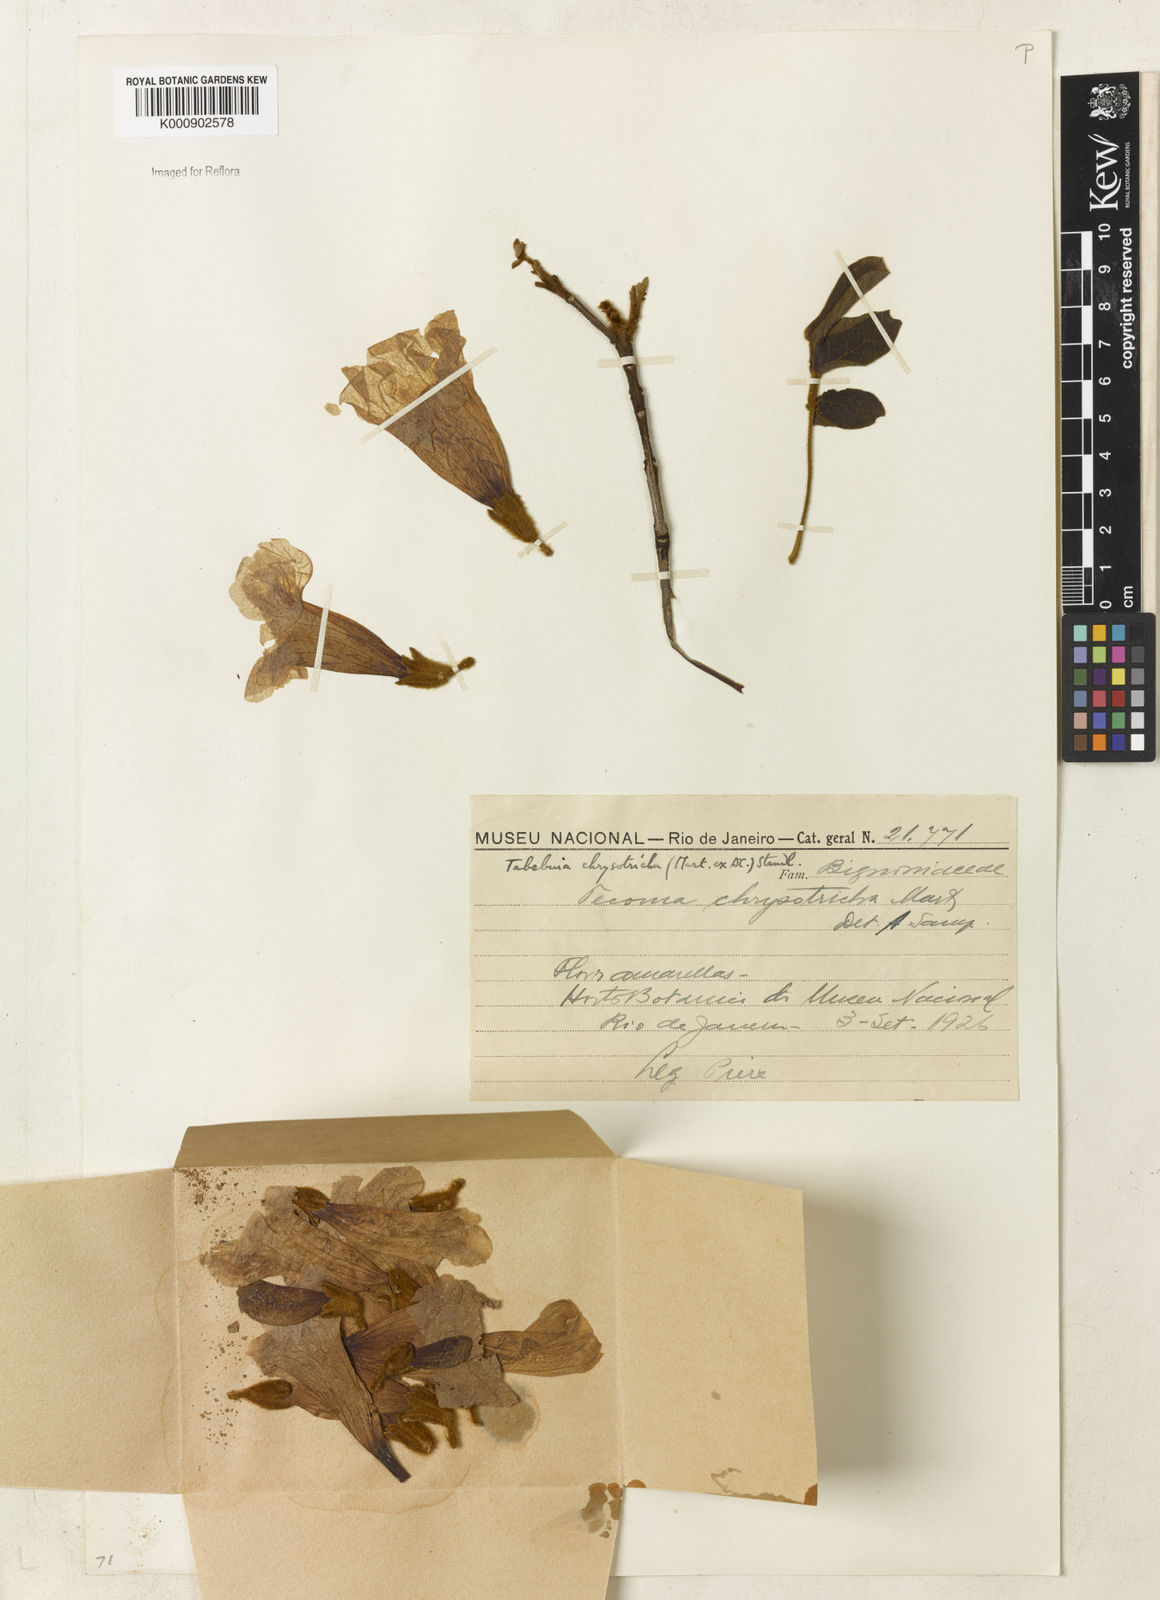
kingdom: Plantae
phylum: Tracheophyta
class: Magnoliopsida
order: Lamiales
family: Bignoniaceae
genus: Handroanthus
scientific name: Handroanthus chrysotrichus
